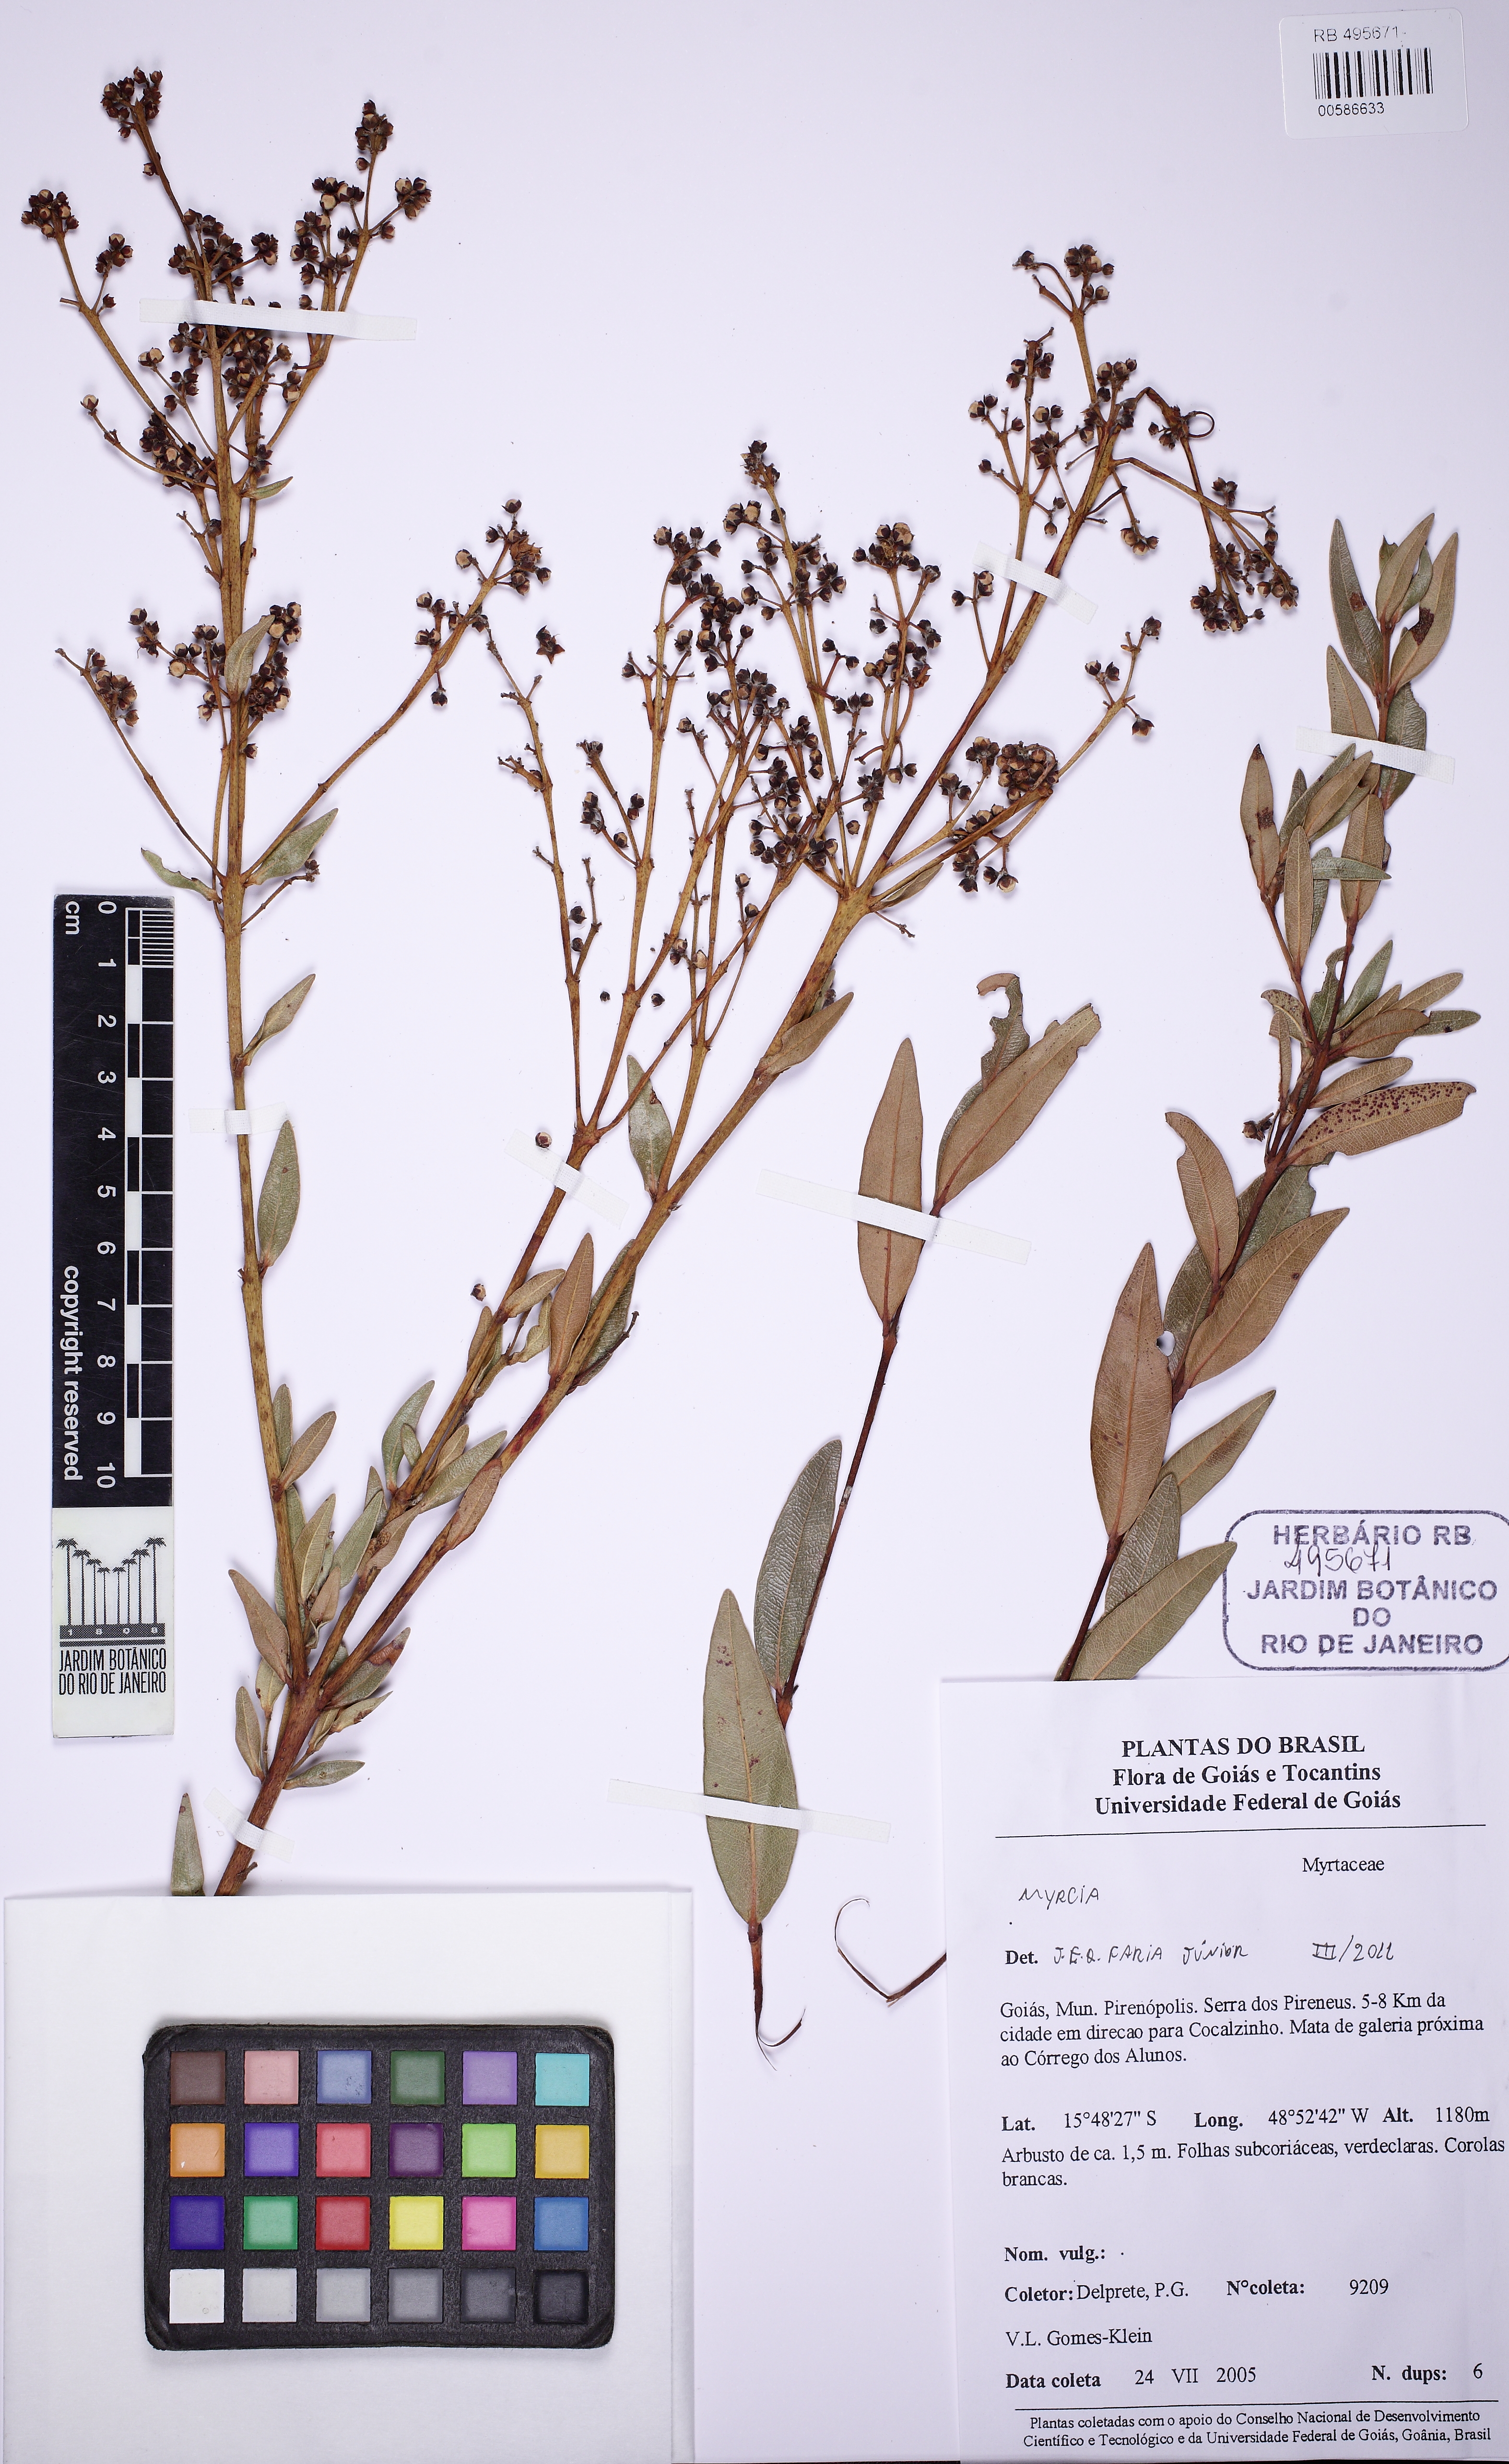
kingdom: Plantae
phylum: Tracheophyta
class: Magnoliopsida
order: Myrtales
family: Myrtaceae
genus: Myrcia
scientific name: Myrcia goyazensis
